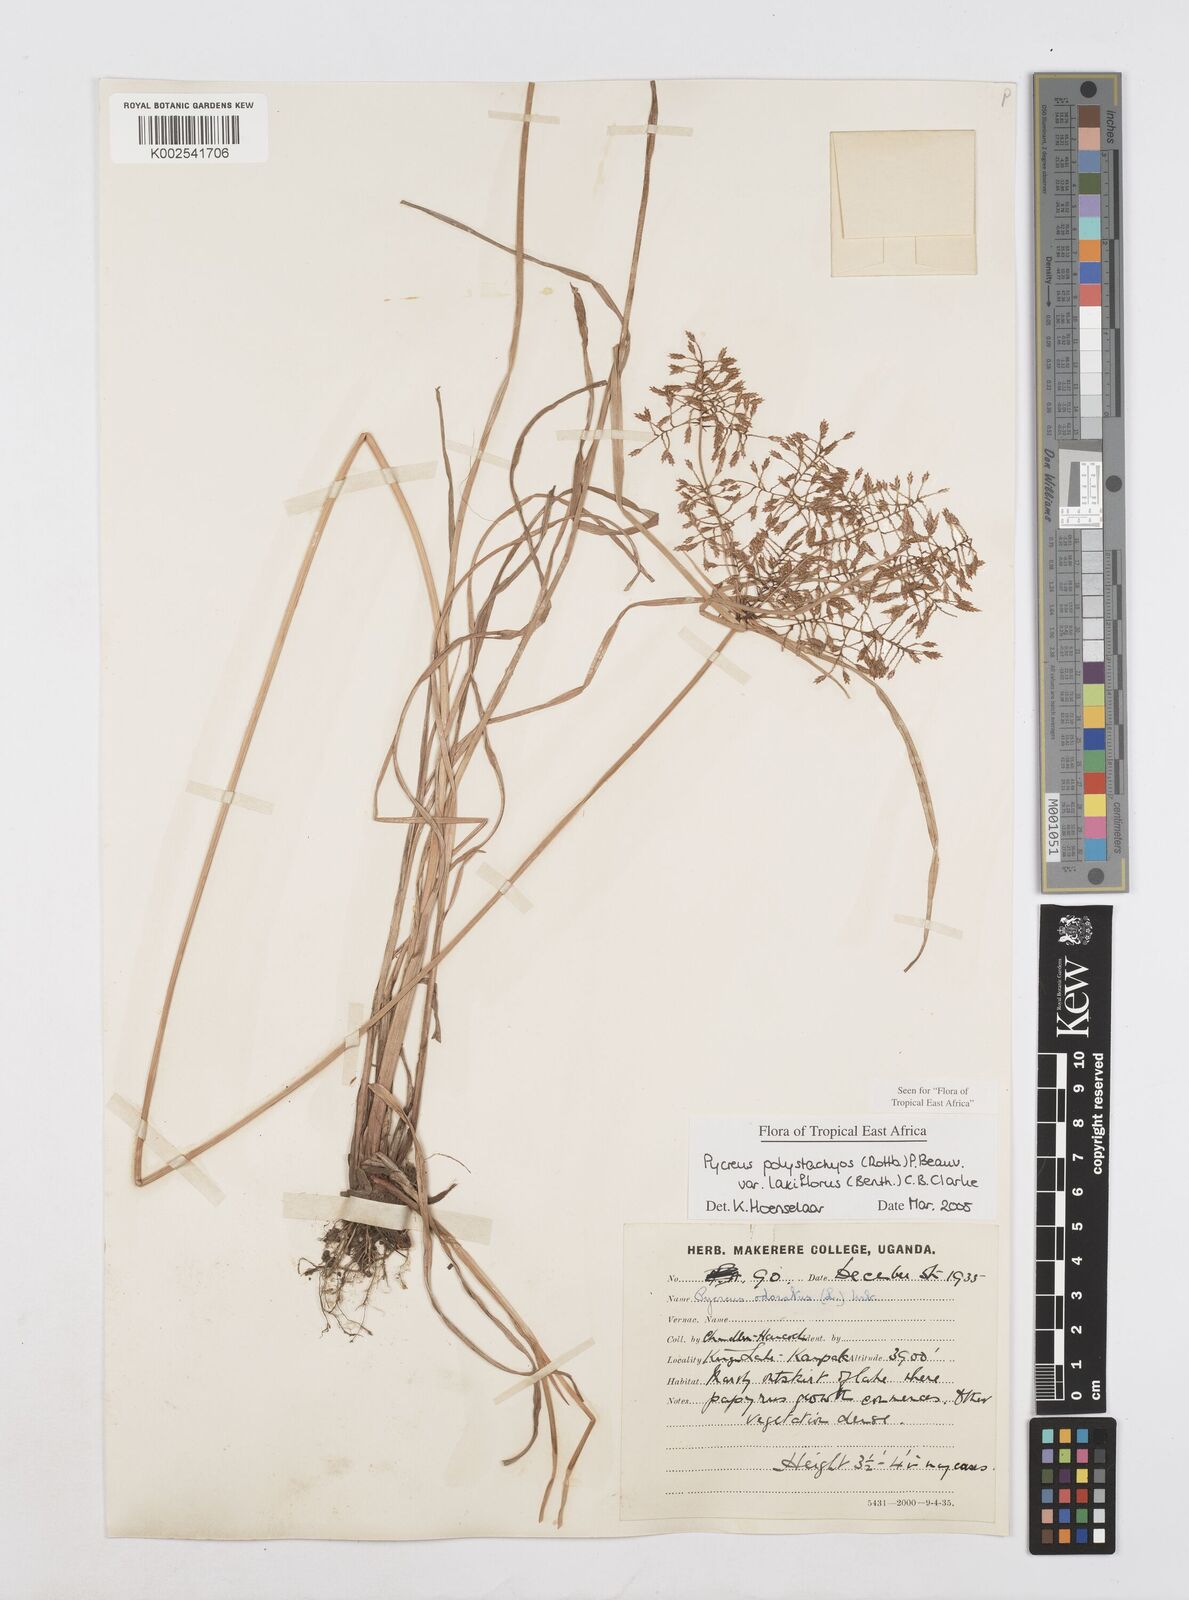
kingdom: Plantae
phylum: Tracheophyta
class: Liliopsida
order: Poales
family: Cyperaceae
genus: Cyperus
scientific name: Cyperus polystachyos
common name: Bunchy flat sedge
